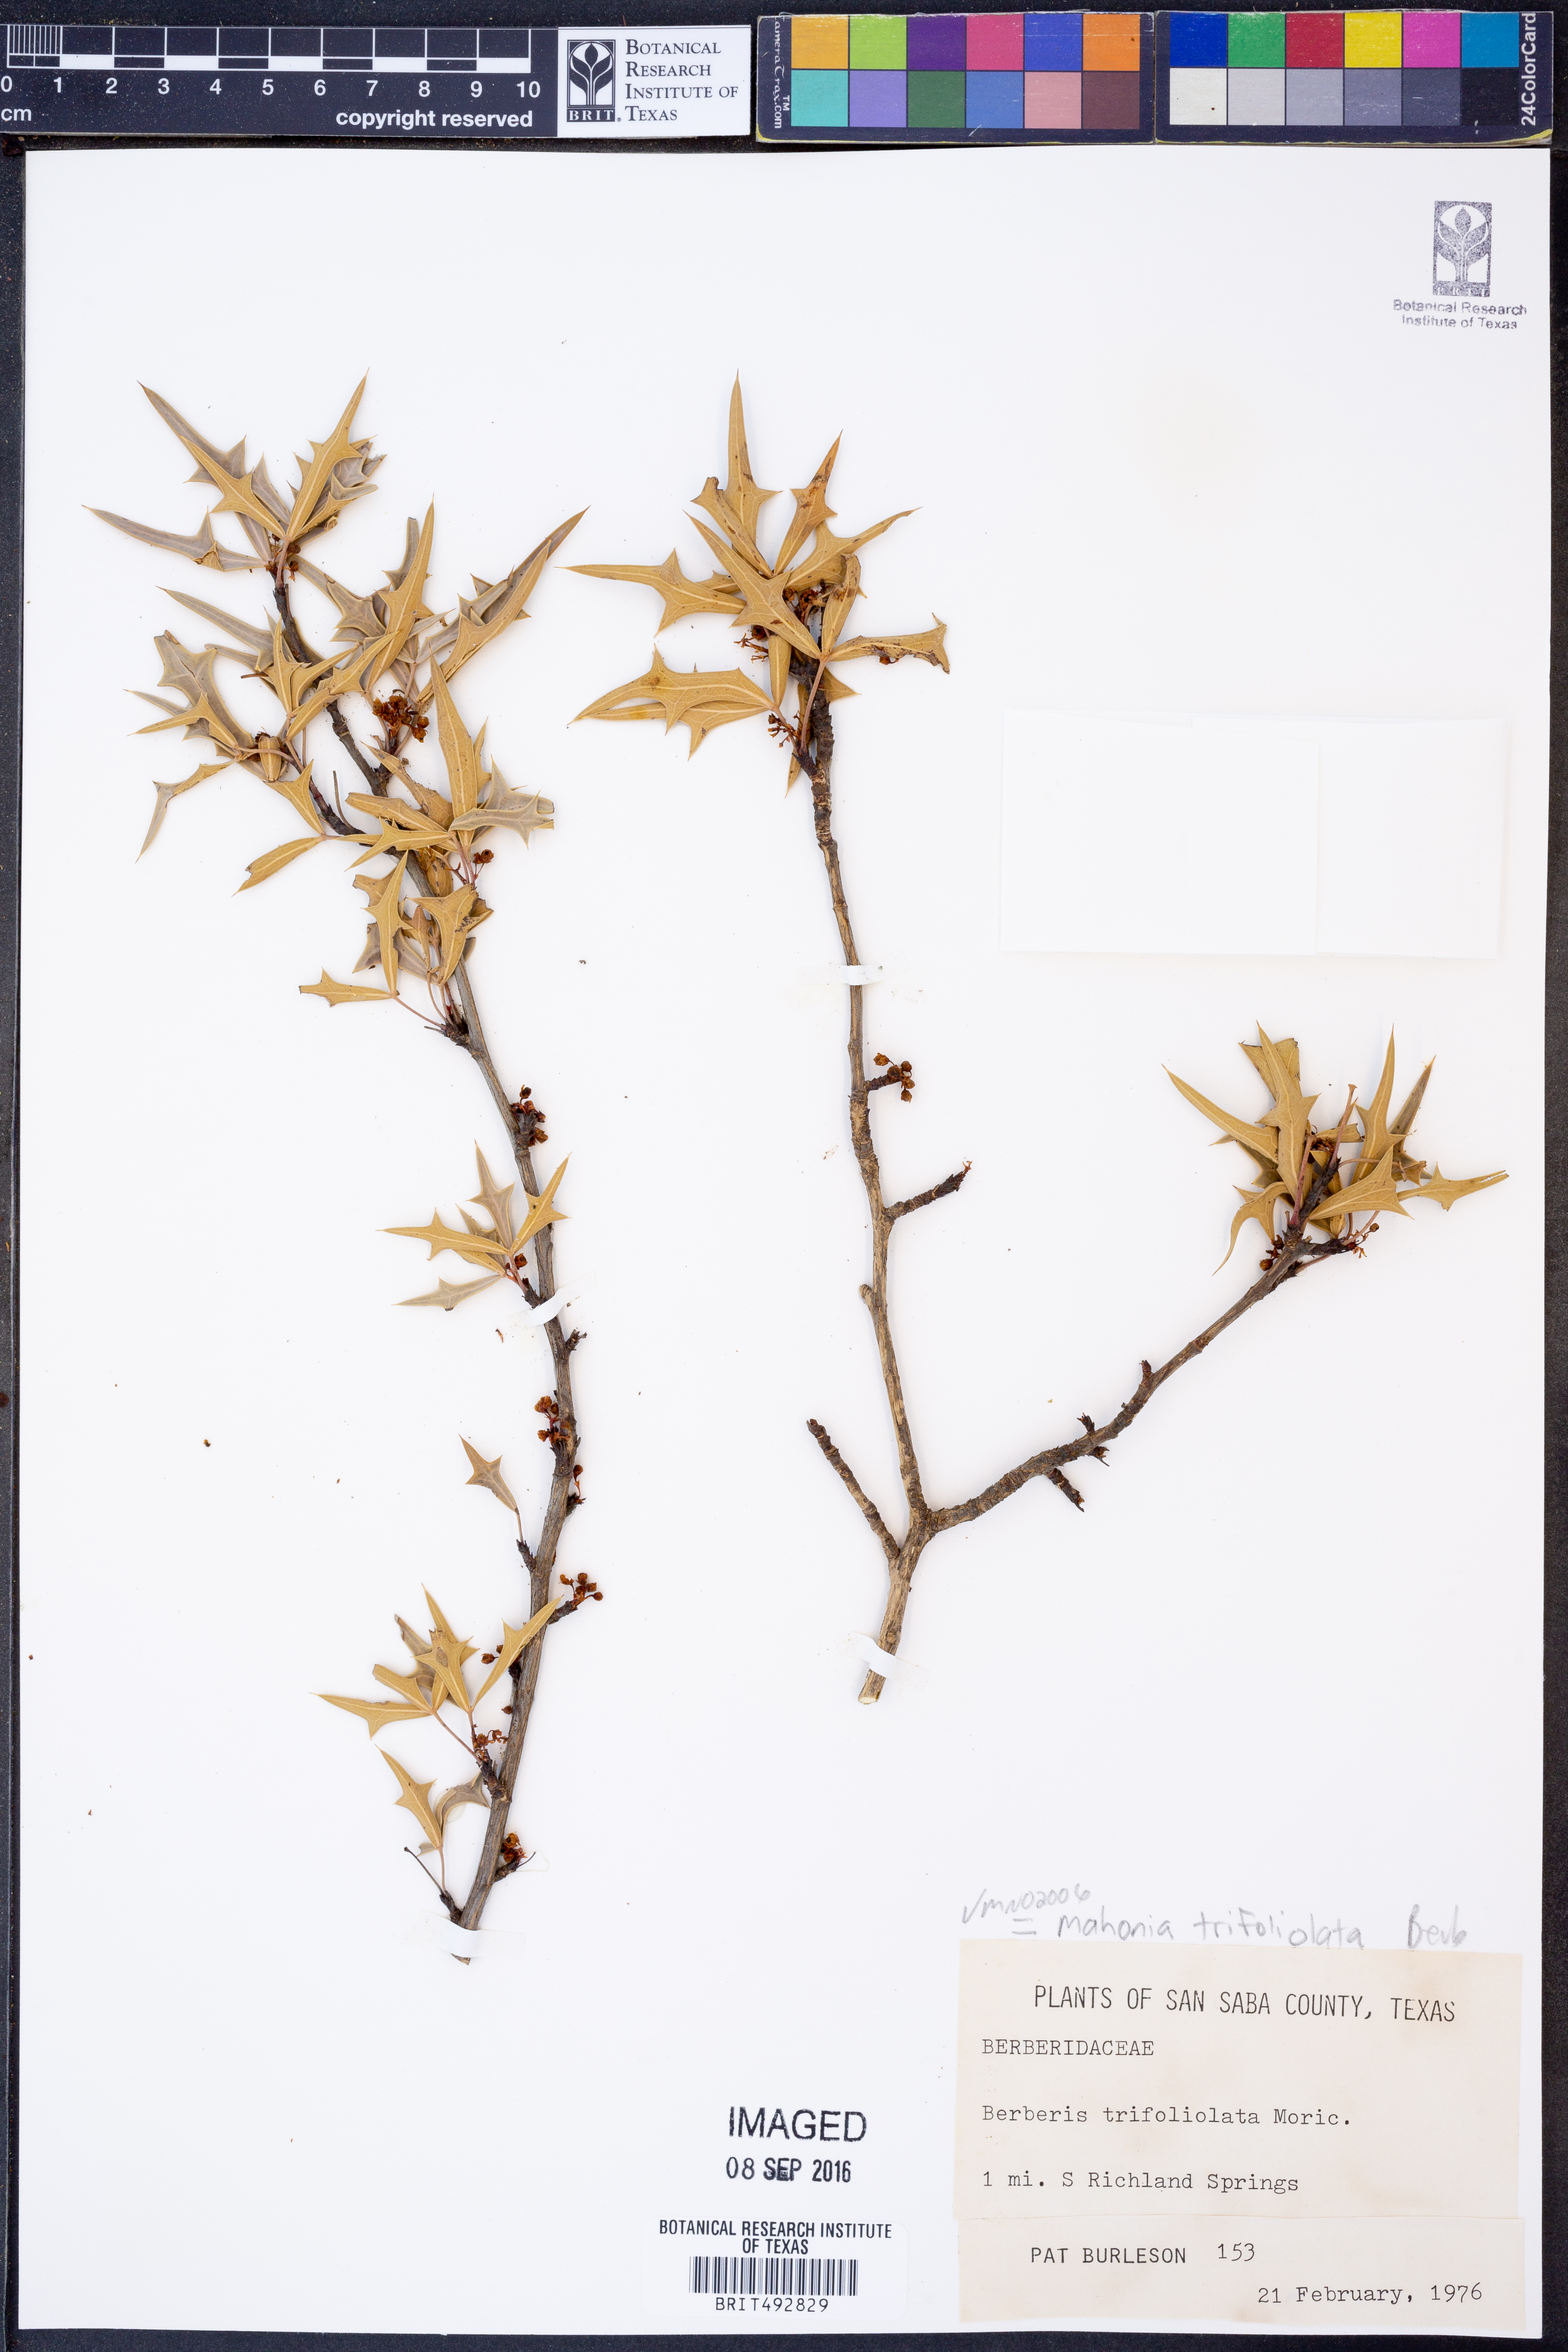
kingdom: Plantae
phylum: Tracheophyta
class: Magnoliopsida
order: Ranunculales
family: Berberidaceae
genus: Alloberberis
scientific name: Alloberberis trifoliolata
